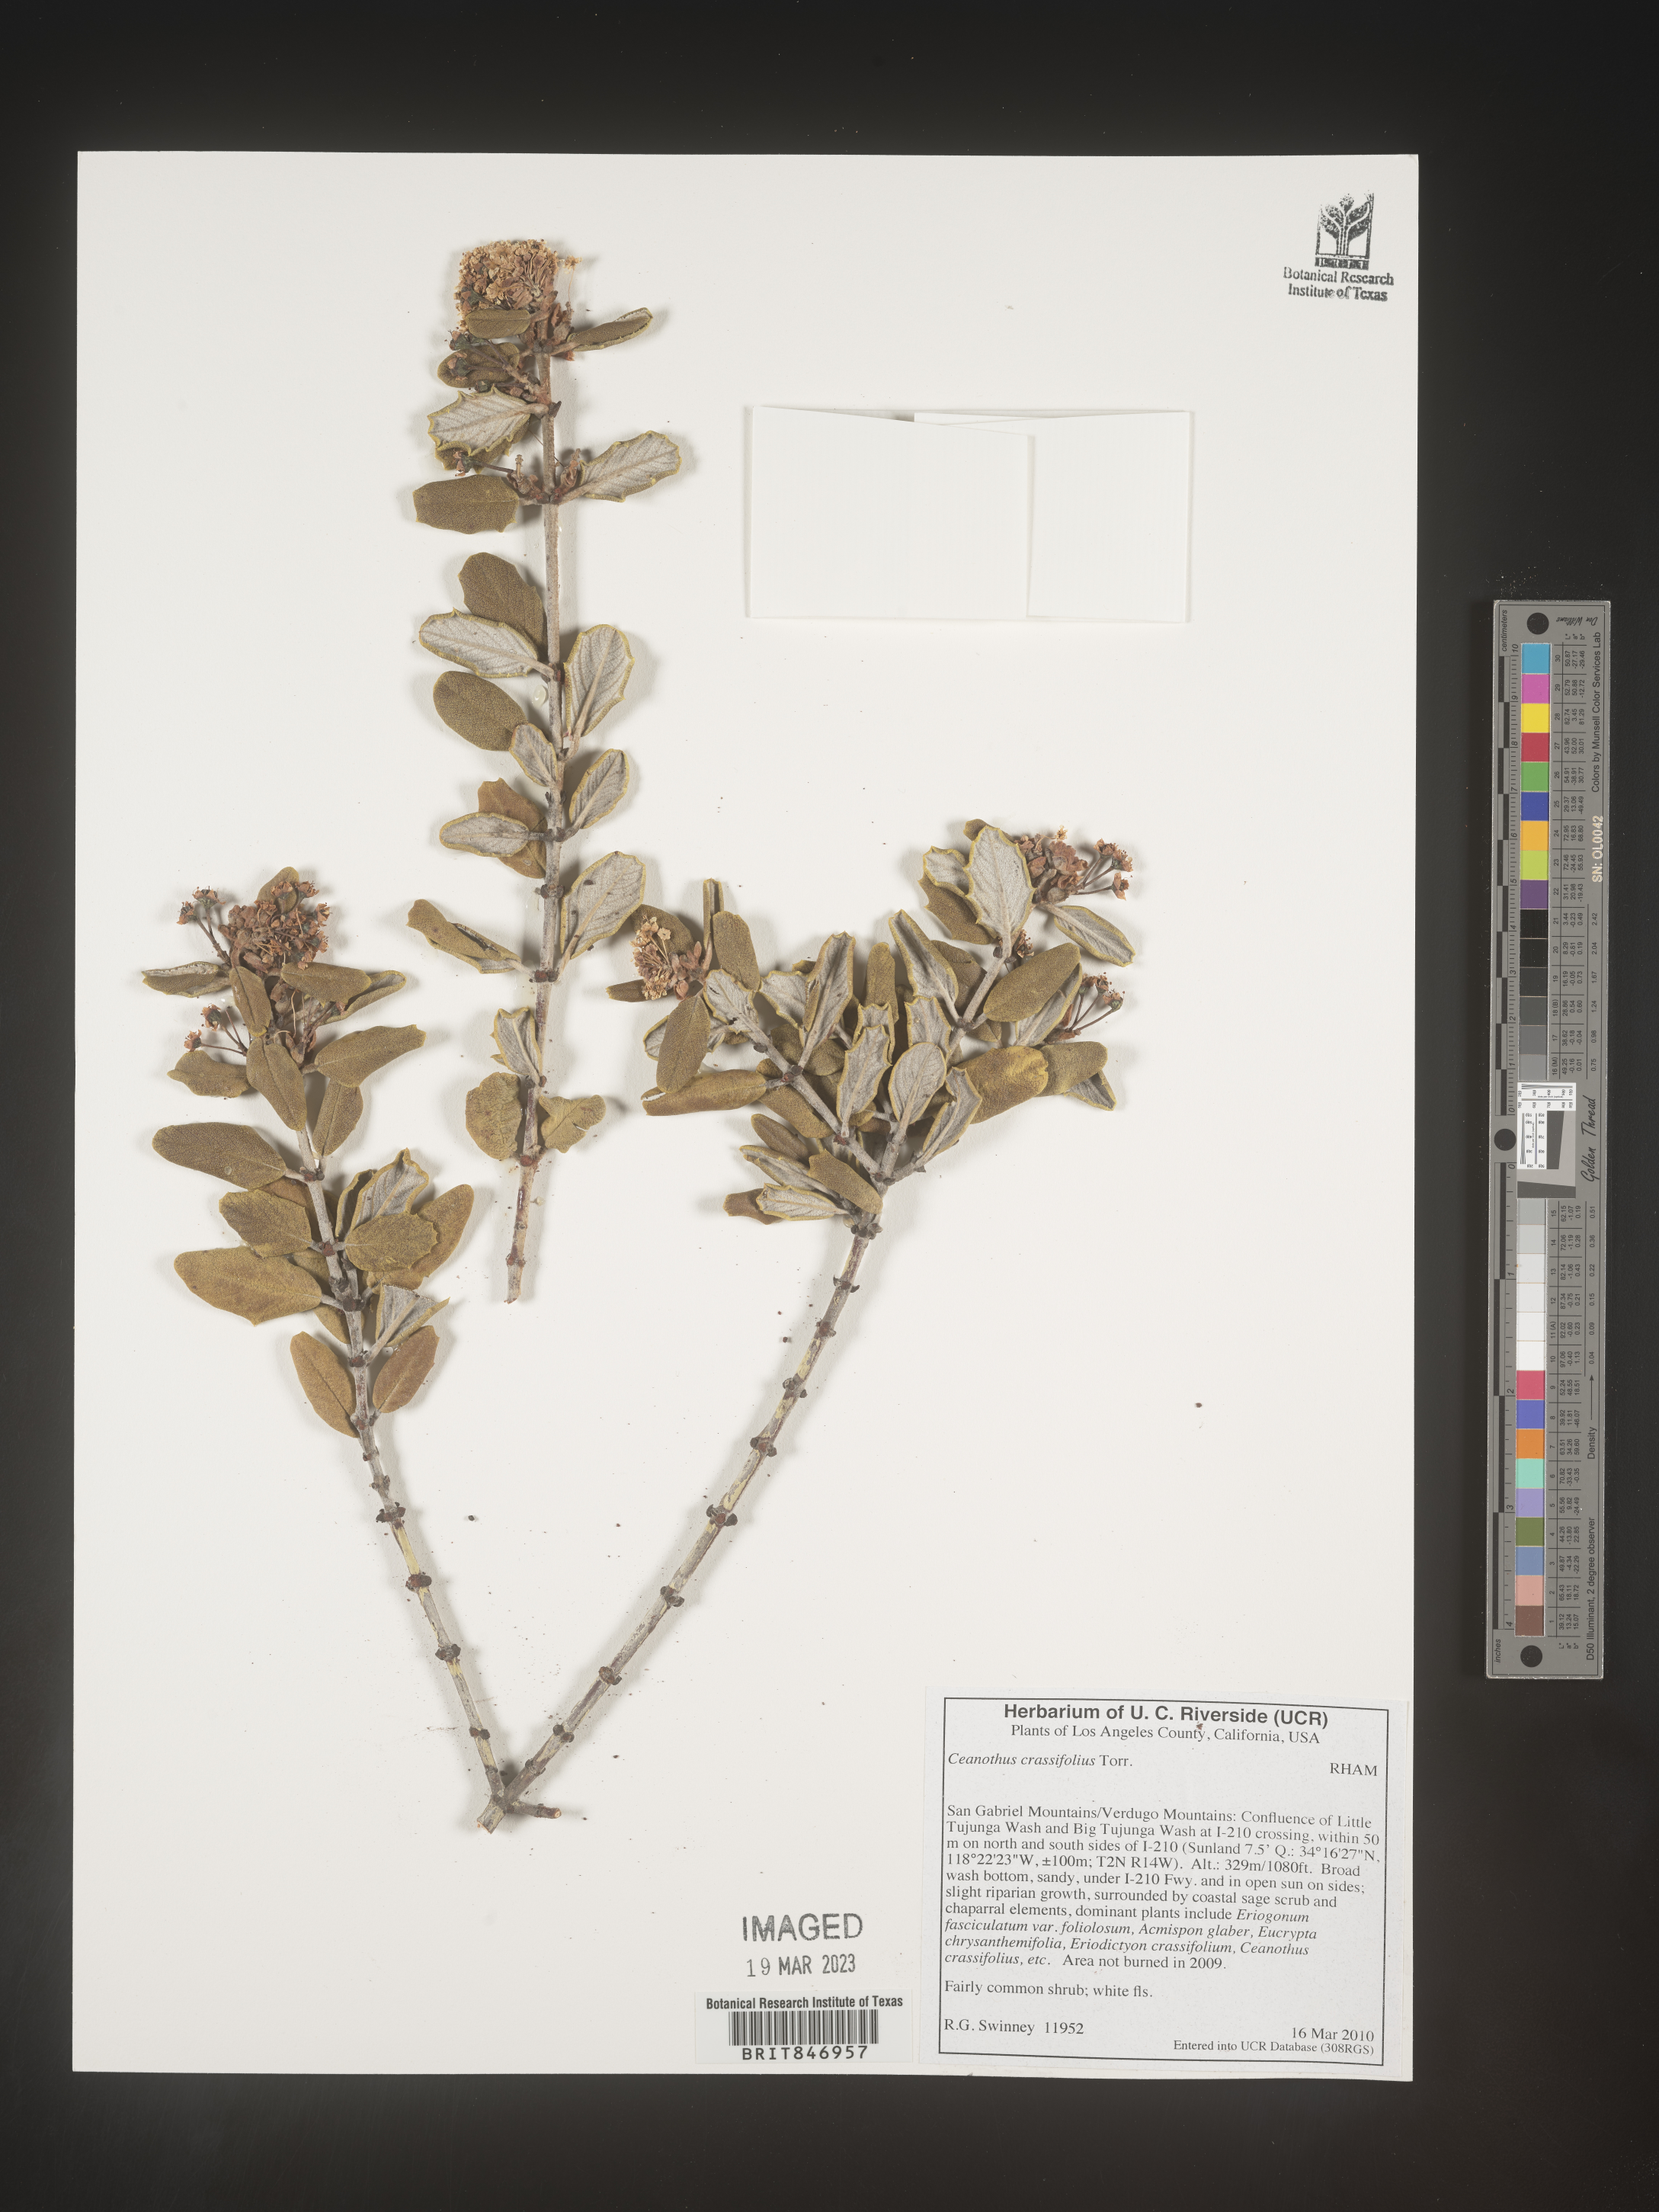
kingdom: Plantae
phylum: Tracheophyta
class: Magnoliopsida
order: Rosales
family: Rhamnaceae
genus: Ceanothus
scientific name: Ceanothus crassifolius
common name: Hoaryleaf ceanothus
